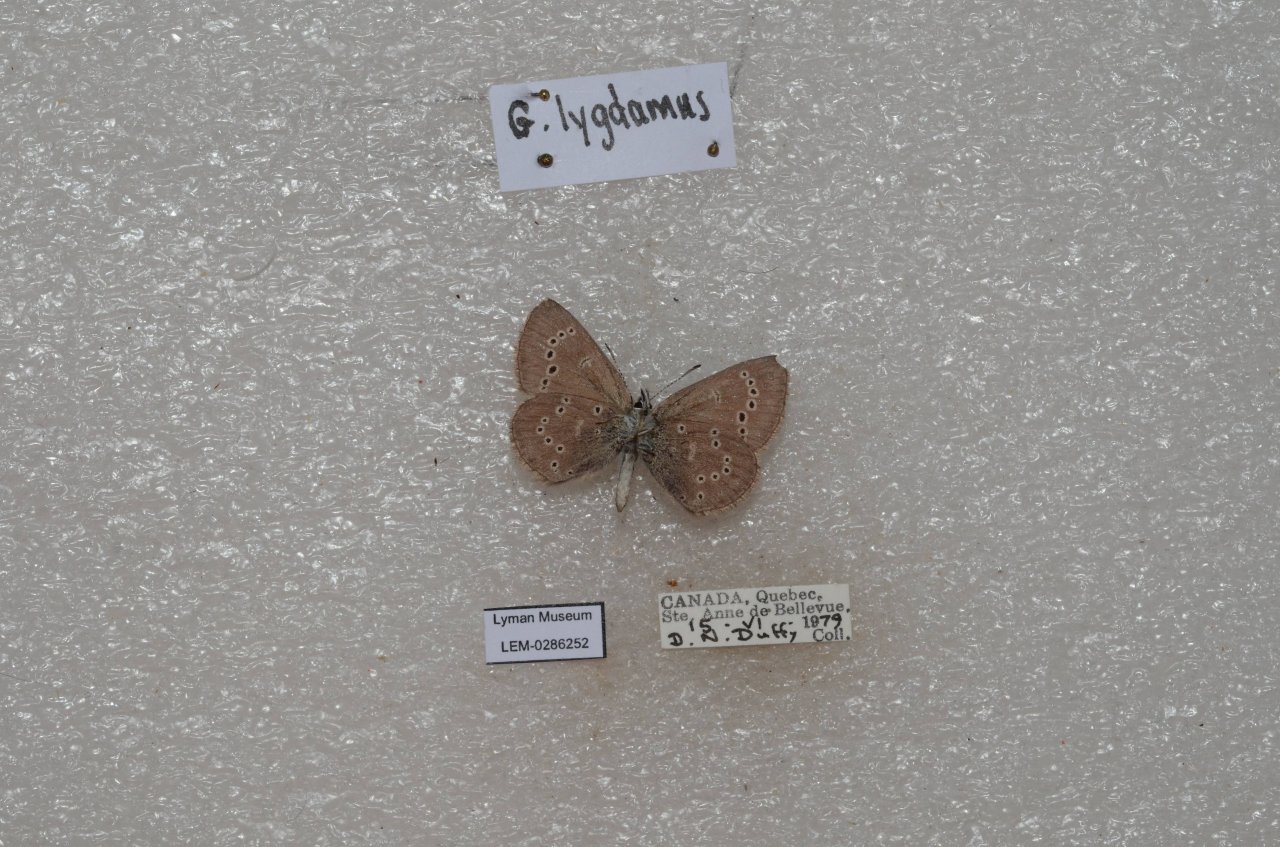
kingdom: Animalia
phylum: Arthropoda
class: Insecta
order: Lepidoptera
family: Lycaenidae
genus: Glaucopsyche
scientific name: Glaucopsyche lygdamus
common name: Silvery Blue
